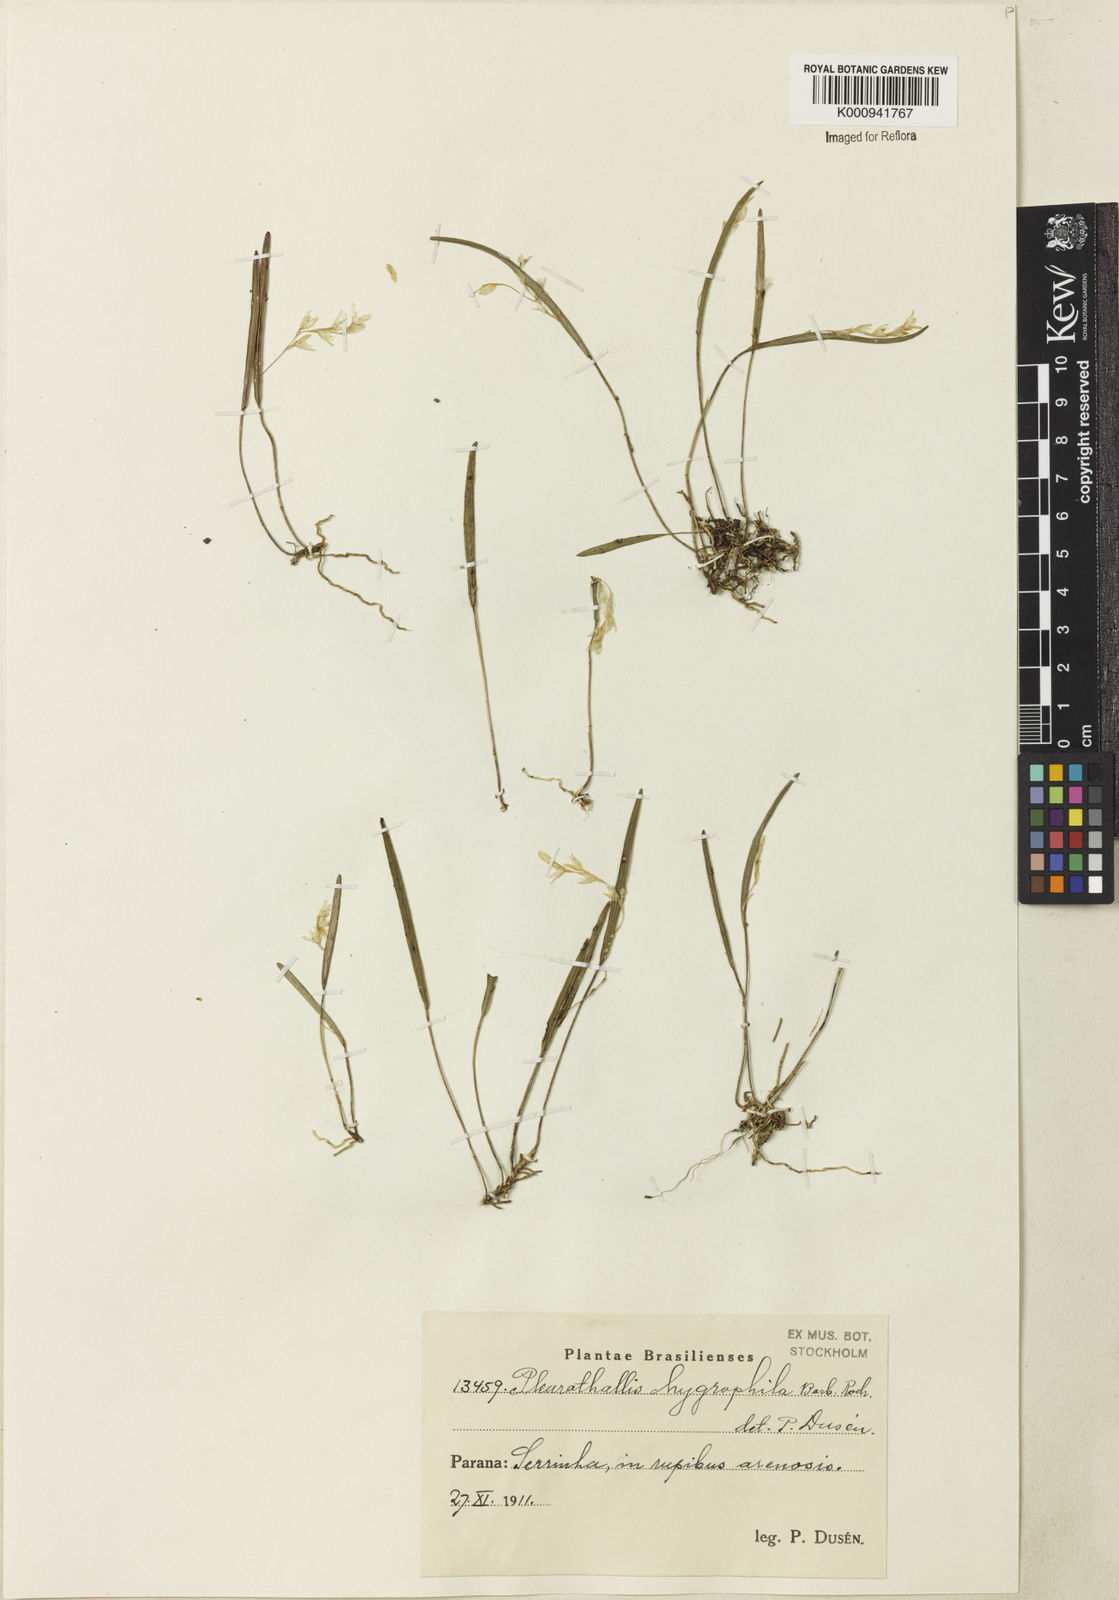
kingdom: Plantae
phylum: Tracheophyta
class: Liliopsida
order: Asparagales
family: Orchidaceae
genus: Acianthera
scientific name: Acianthera hygrophila
